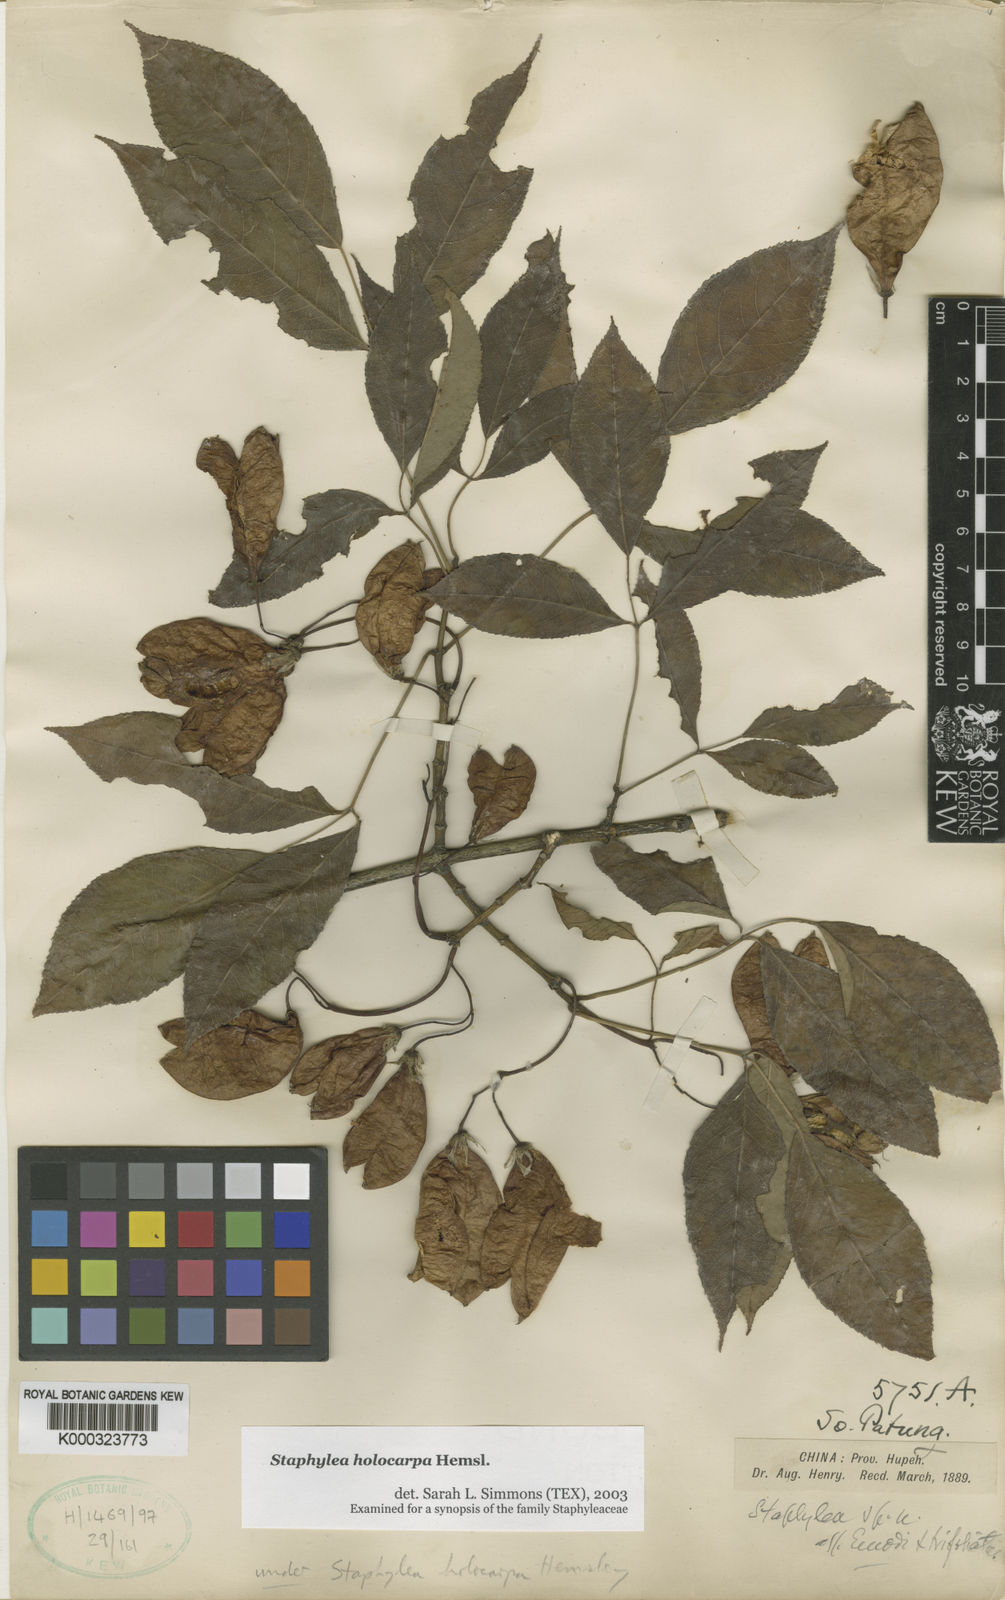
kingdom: Plantae
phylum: Tracheophyta
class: Magnoliopsida
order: Crossosomatales
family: Staphyleaceae
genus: Staphylea
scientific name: Staphylea holocarpa
